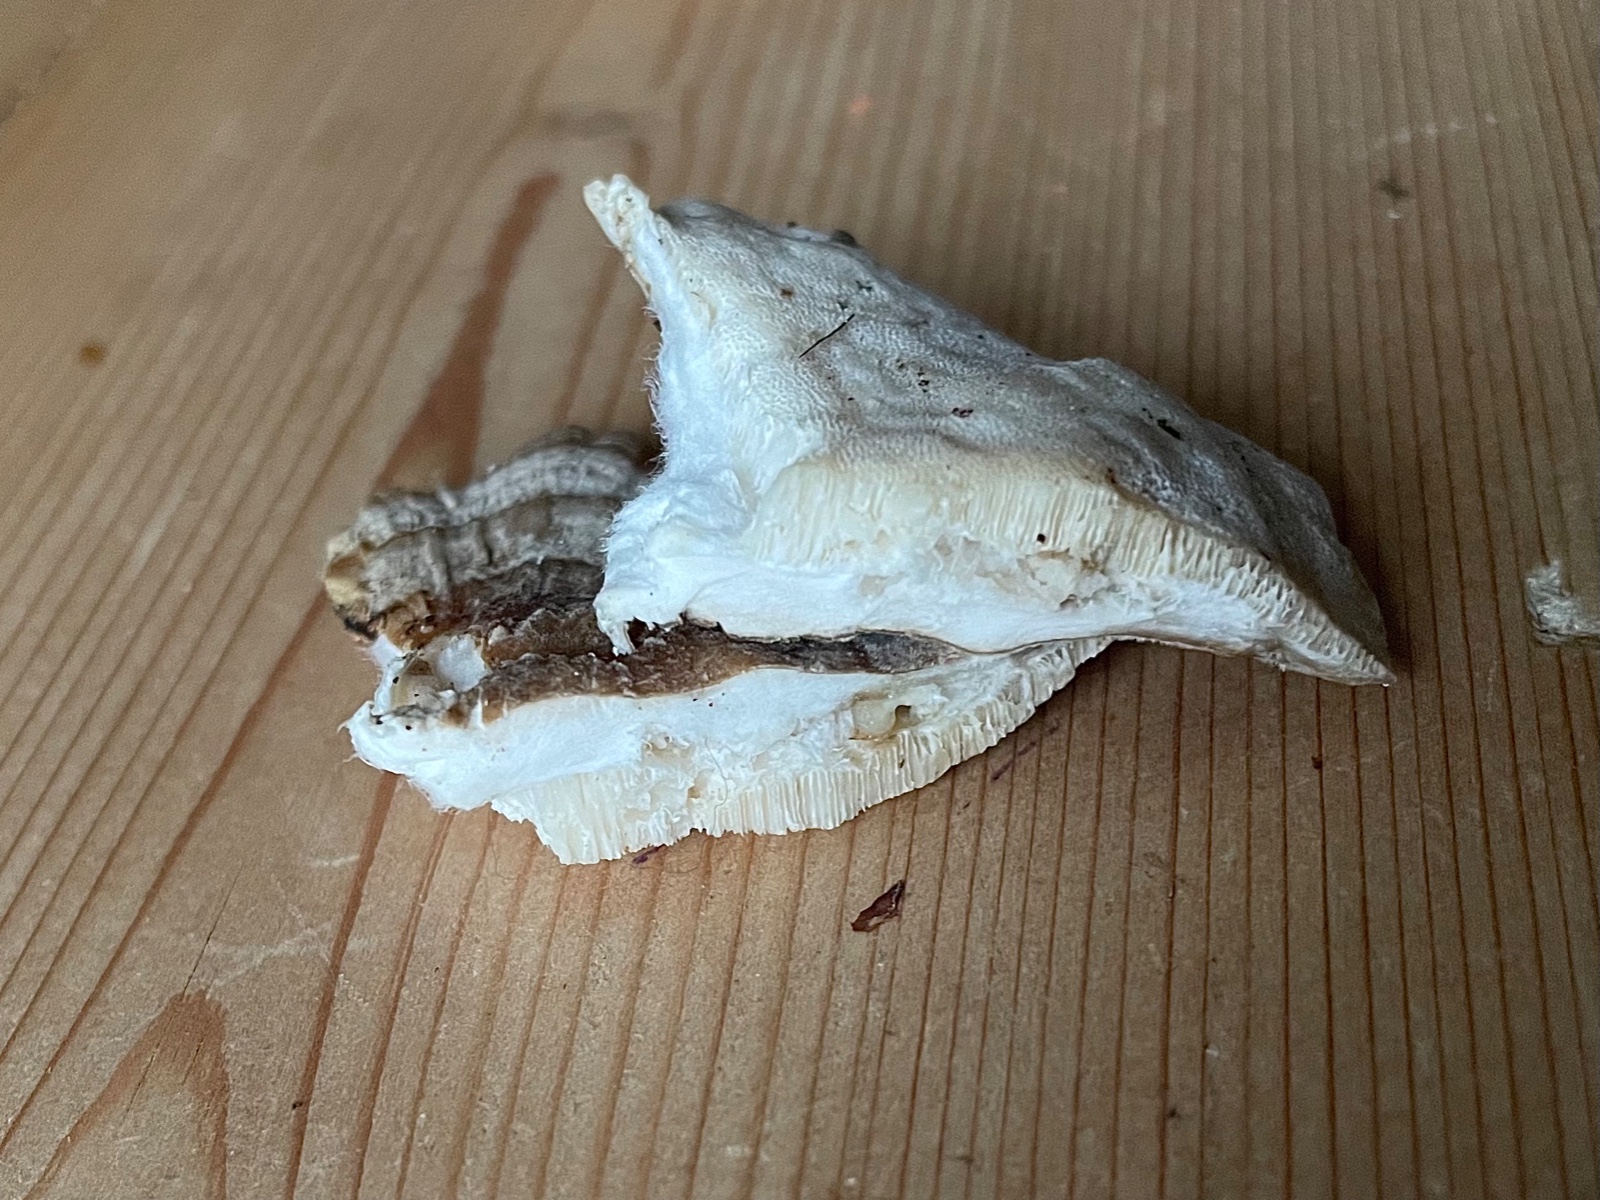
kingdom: Fungi
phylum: Basidiomycota
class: Agaricomycetes
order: Polyporales
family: Polyporaceae
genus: Trametes
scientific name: Trametes ochracea
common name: bæltet læderporesvamp
